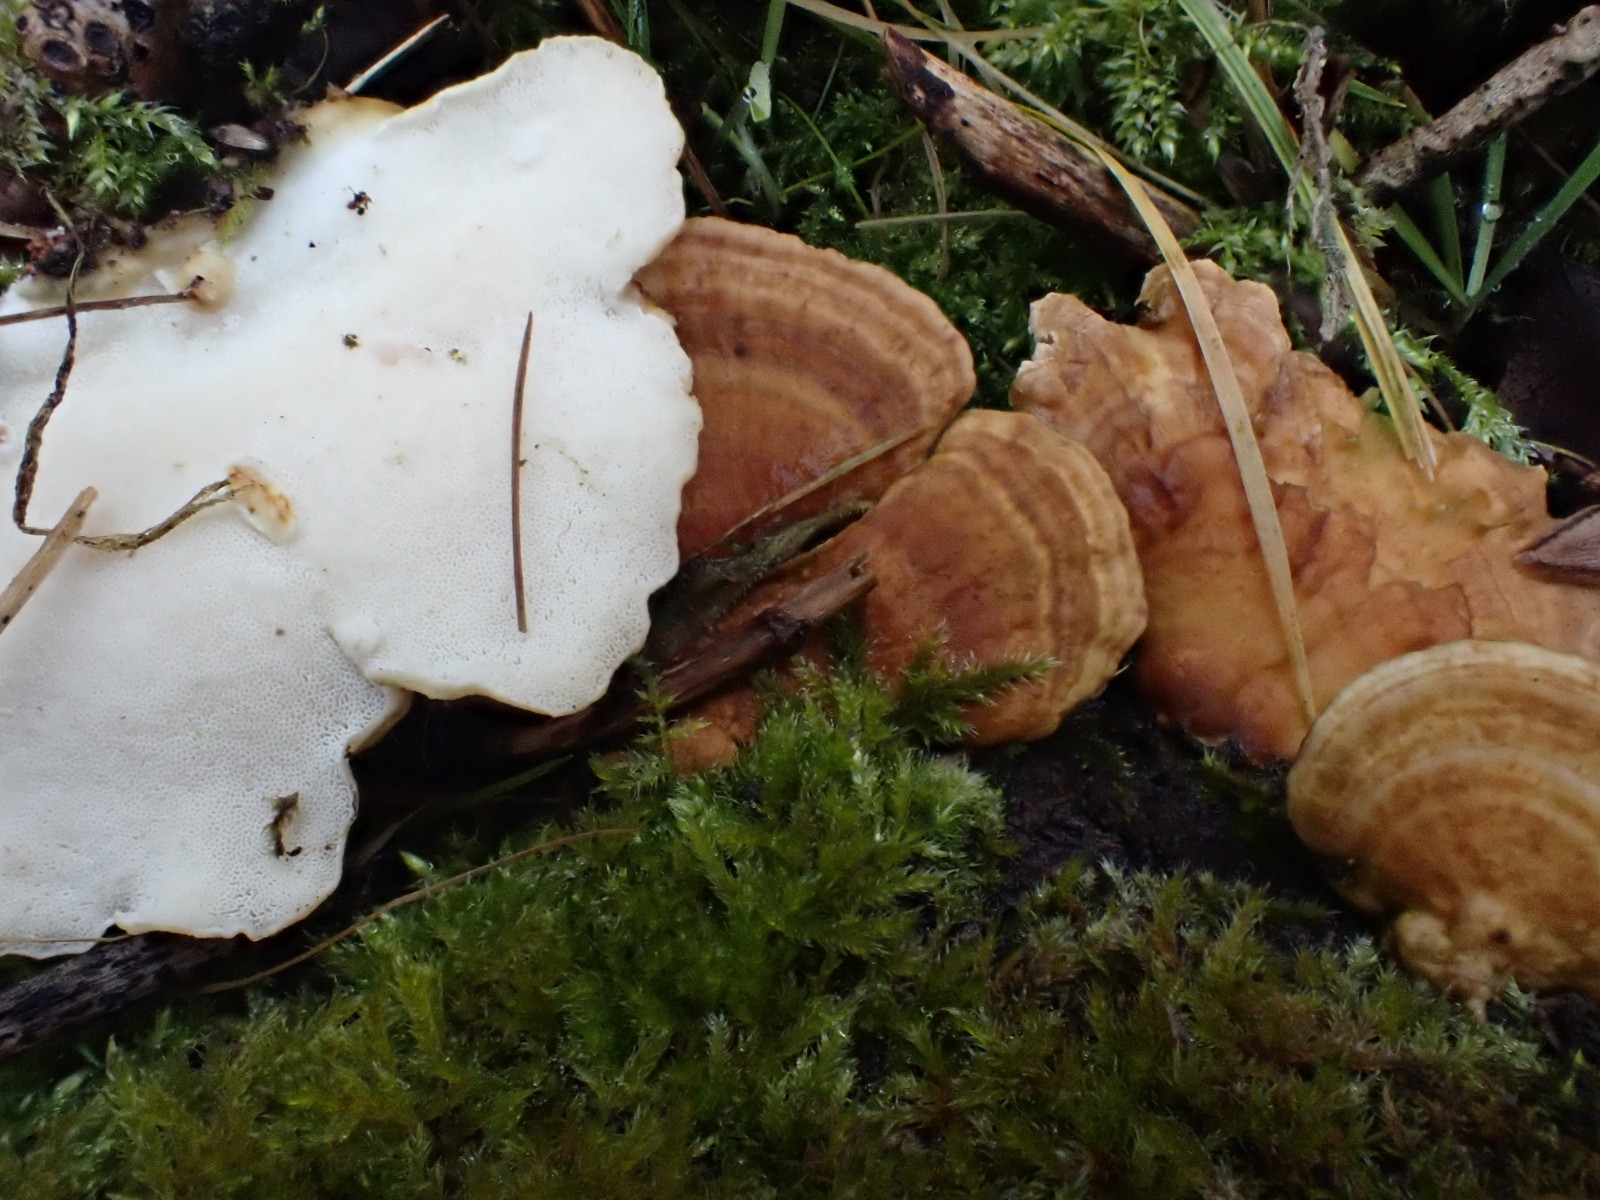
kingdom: Fungi
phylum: Basidiomycota
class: Agaricomycetes
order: Polyporales
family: Polyporaceae
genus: Trametes
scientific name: Trametes
